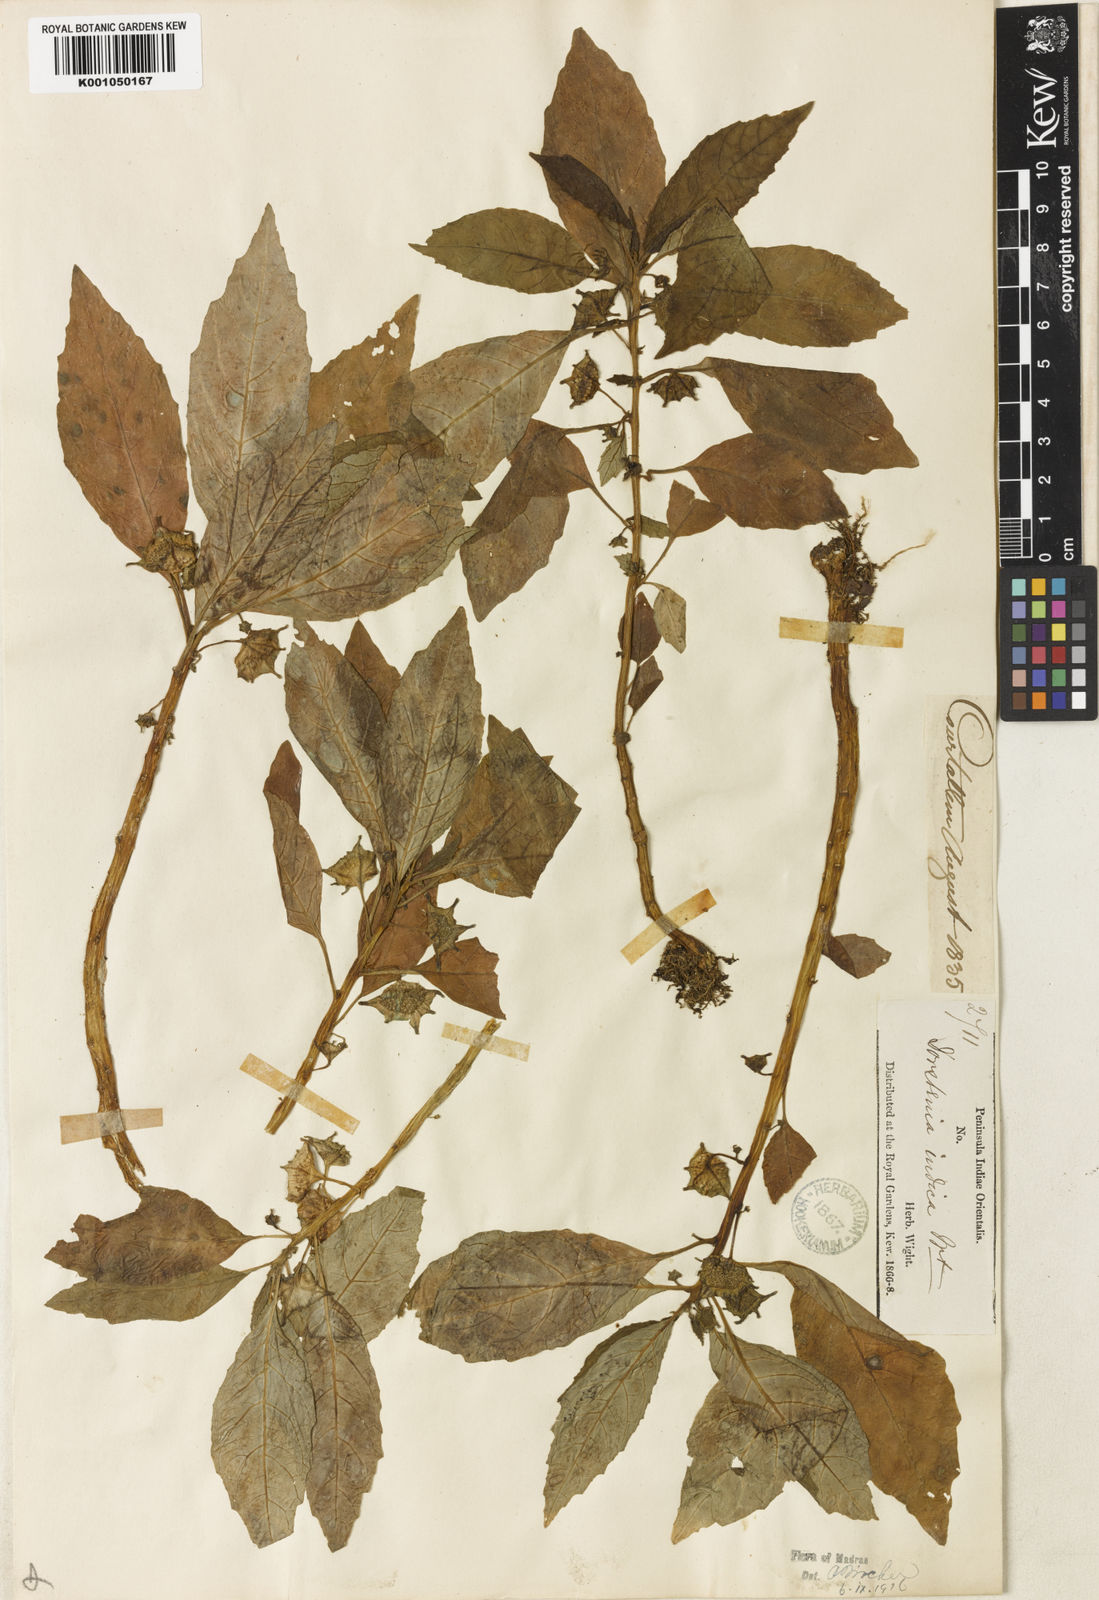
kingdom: Plantae
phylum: Tracheophyta
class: Magnoliopsida
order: Rosales
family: Moraceae
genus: Dorstenia
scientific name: Dorstenia indica
